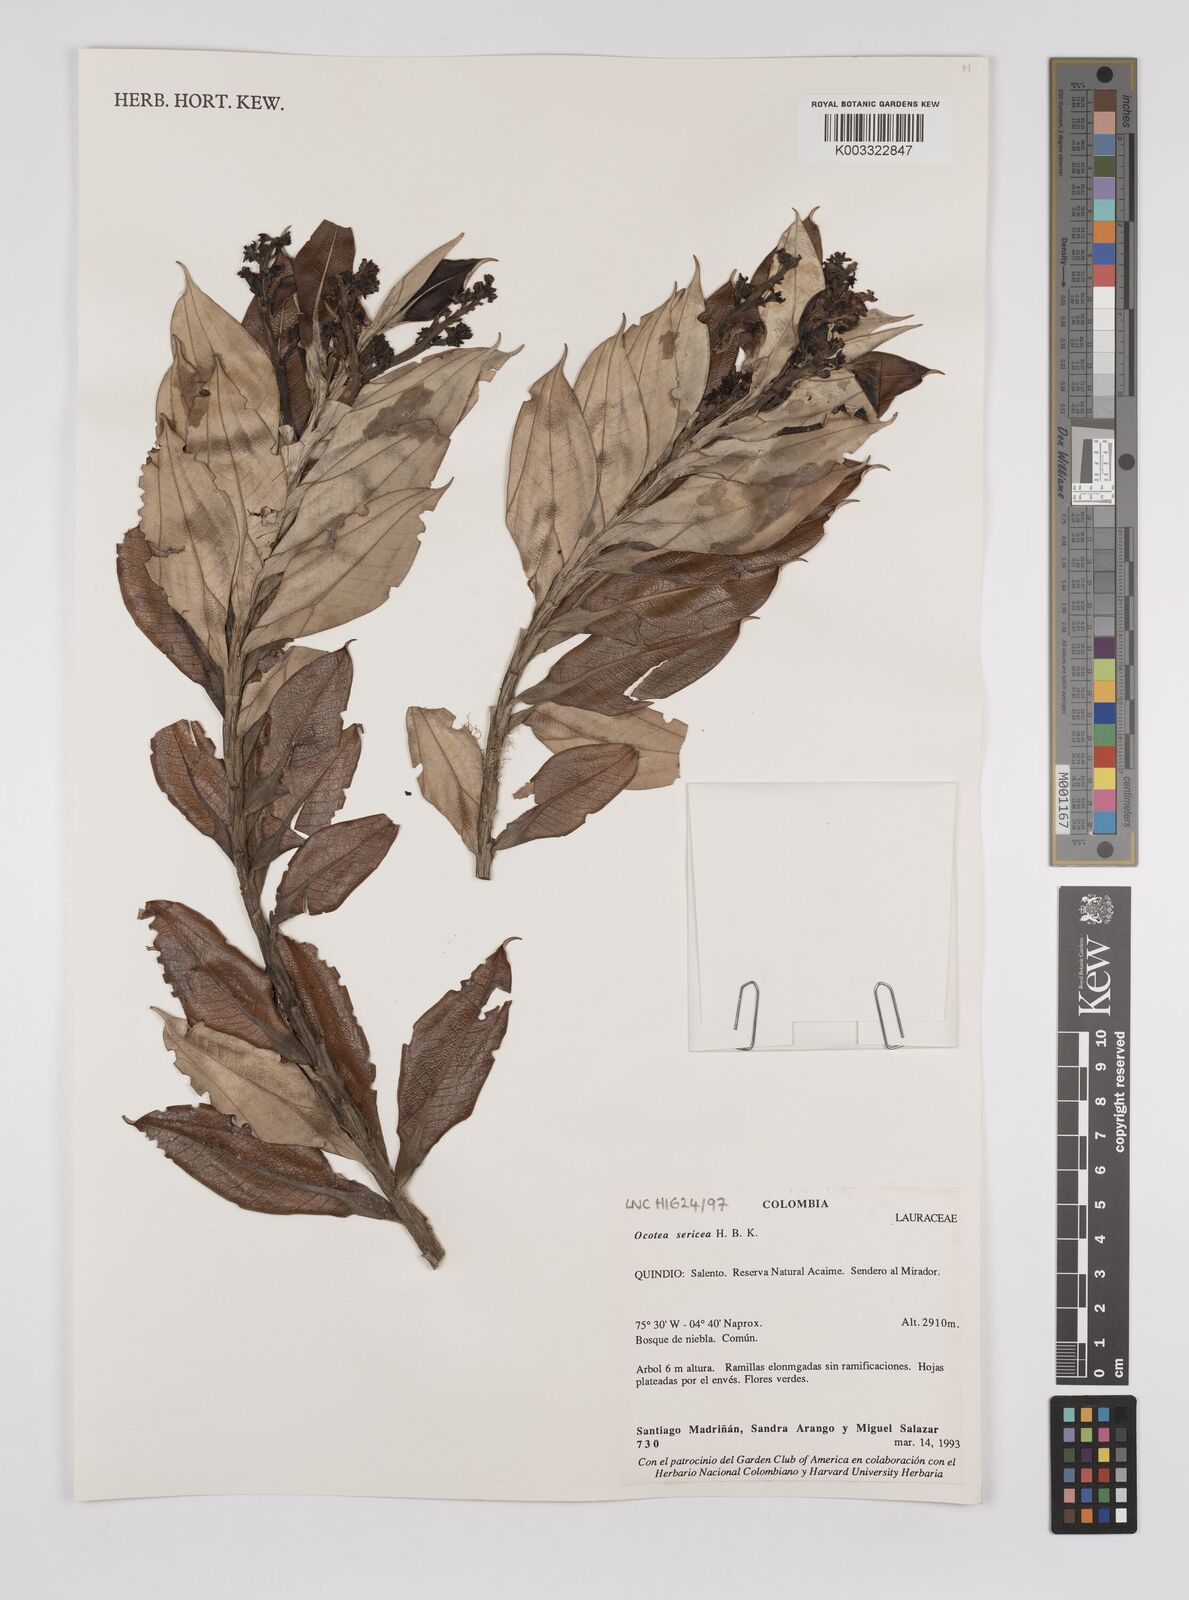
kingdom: Plantae
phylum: Tracheophyta
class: Magnoliopsida
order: Laurales
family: Lauraceae
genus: Ocotea
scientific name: Ocotea
